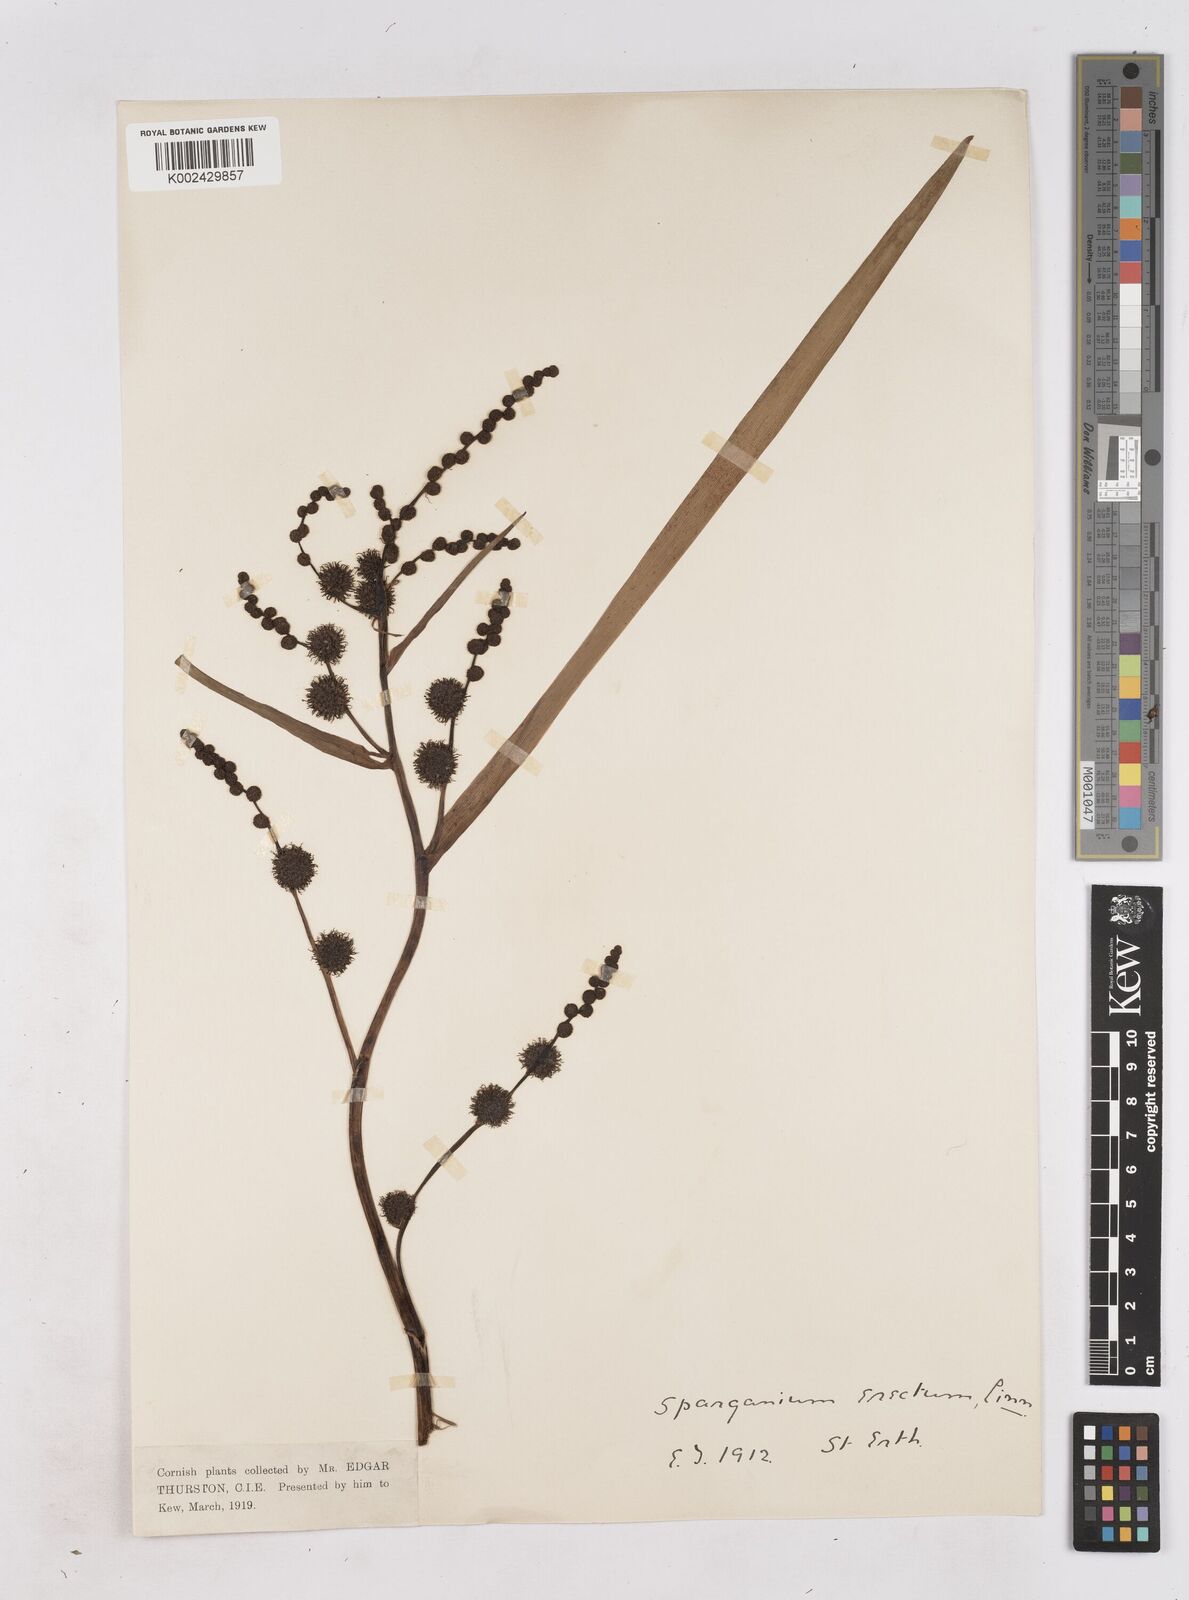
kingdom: Plantae
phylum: Tracheophyta
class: Liliopsida
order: Poales
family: Typhaceae
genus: Sparganium
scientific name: Sparganium erectum
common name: Branched bur-reed
